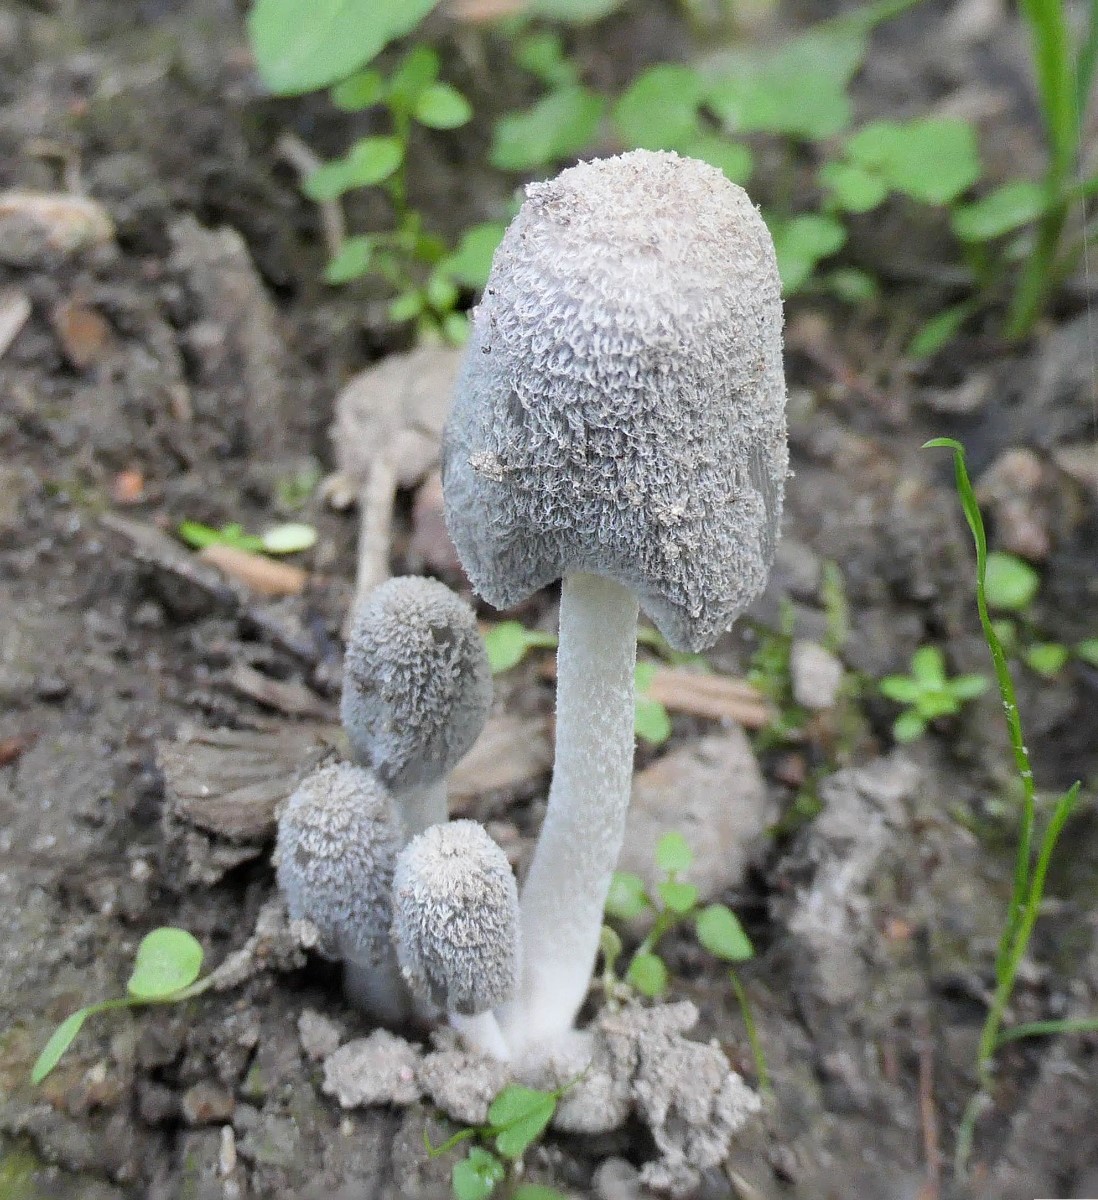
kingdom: Fungi
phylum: Basidiomycota
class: Agaricomycetes
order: Agaricales
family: Psathyrellaceae
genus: Coprinopsis
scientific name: Coprinopsis lagopus
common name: dunstokket blækhat
